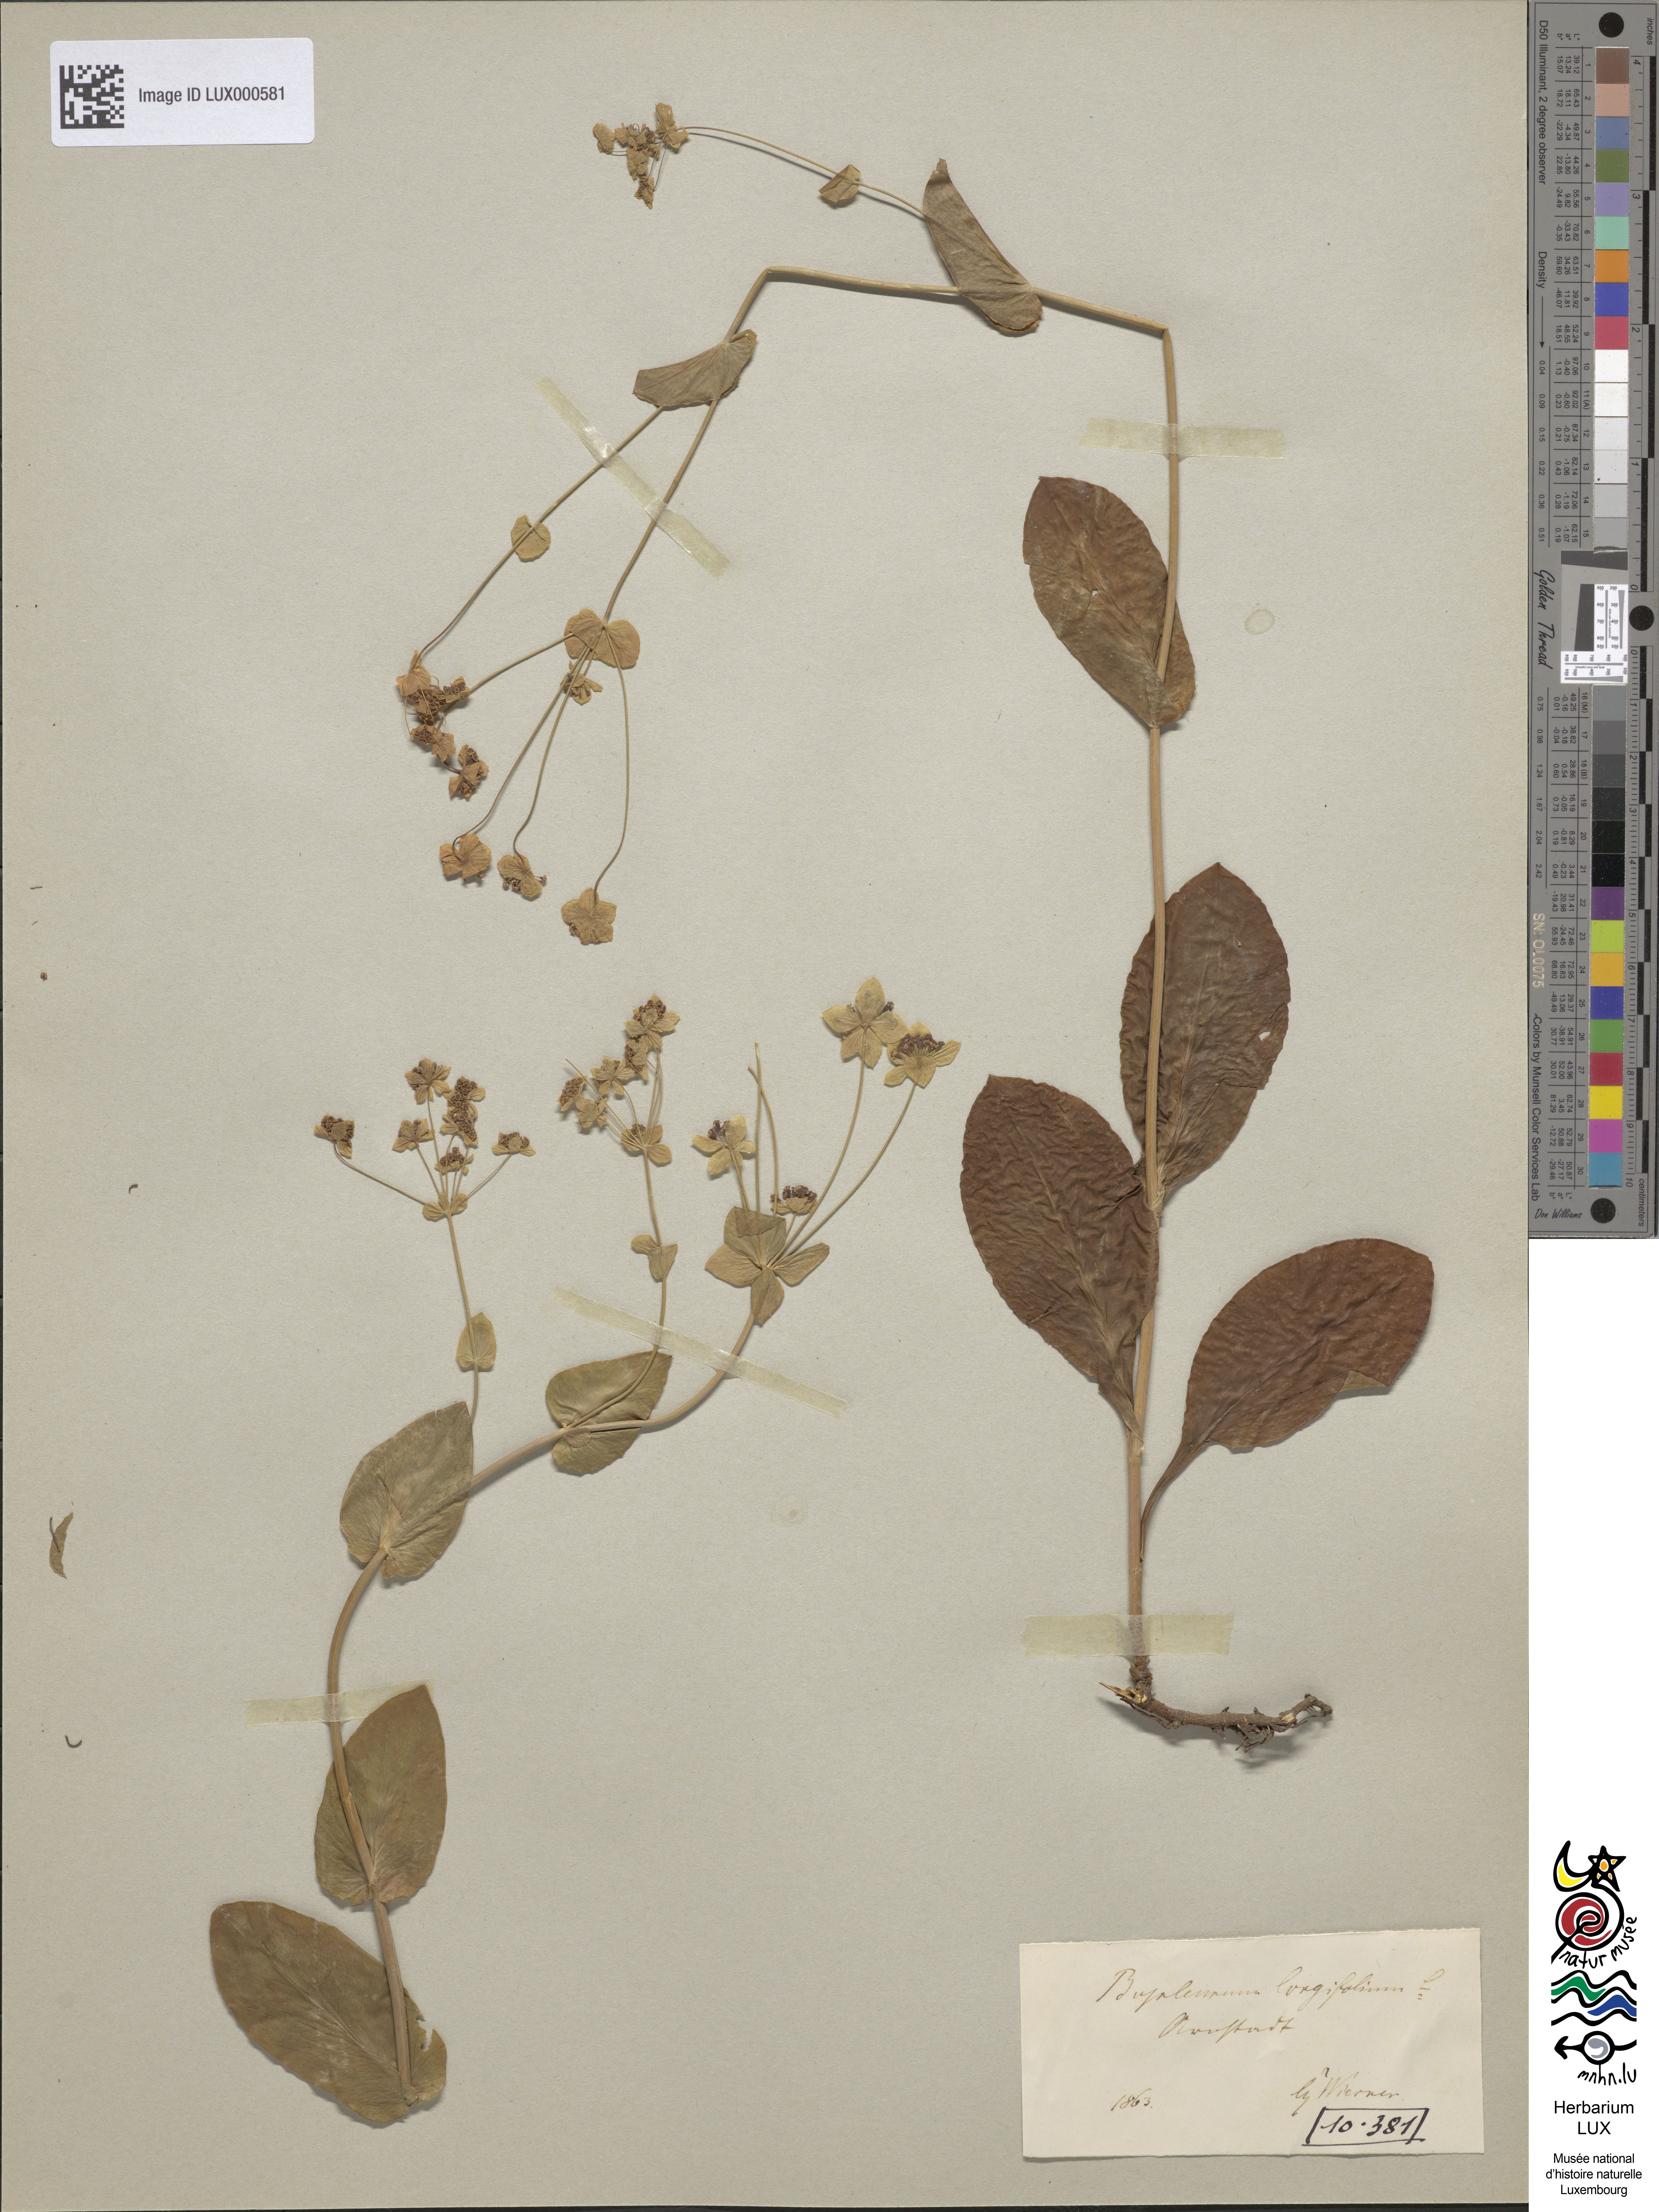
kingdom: Plantae
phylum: Tracheophyta
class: Magnoliopsida
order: Apiales
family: Apiaceae
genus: Bupleurum
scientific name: Bupleurum longifolium
